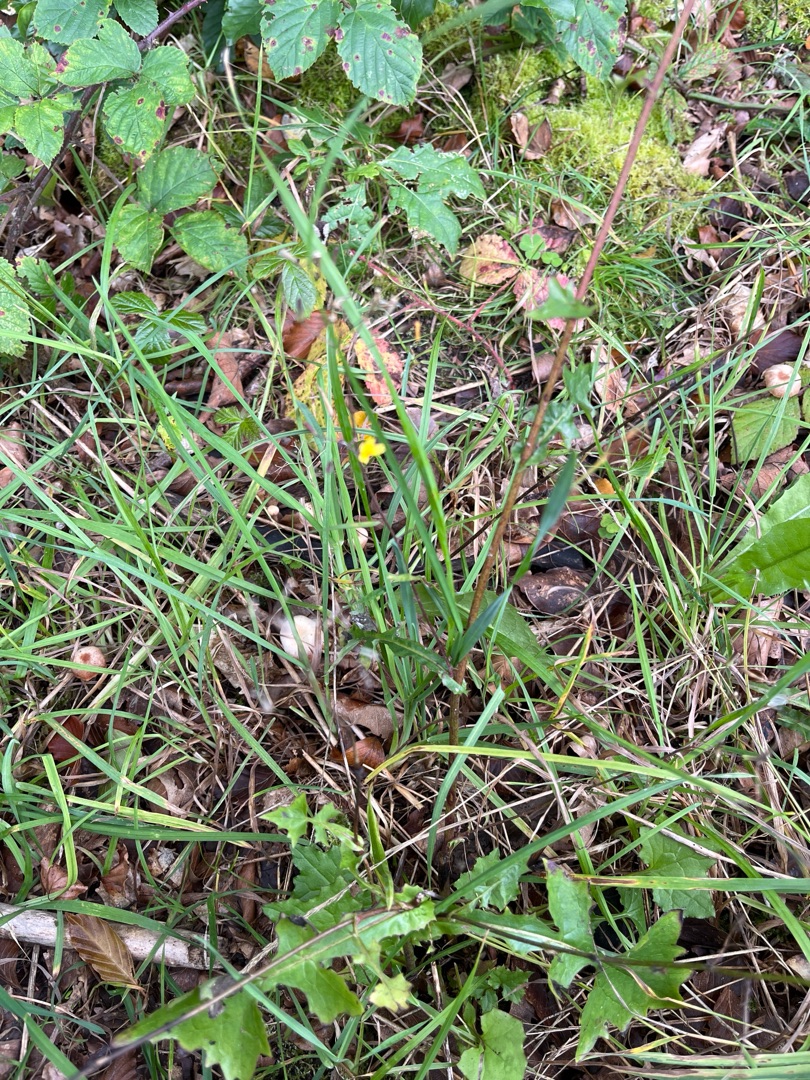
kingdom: Plantae
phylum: Tracheophyta
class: Magnoliopsida
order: Asterales
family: Asteraceae
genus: Mycelis
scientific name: Mycelis muralis
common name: Skov-salat
